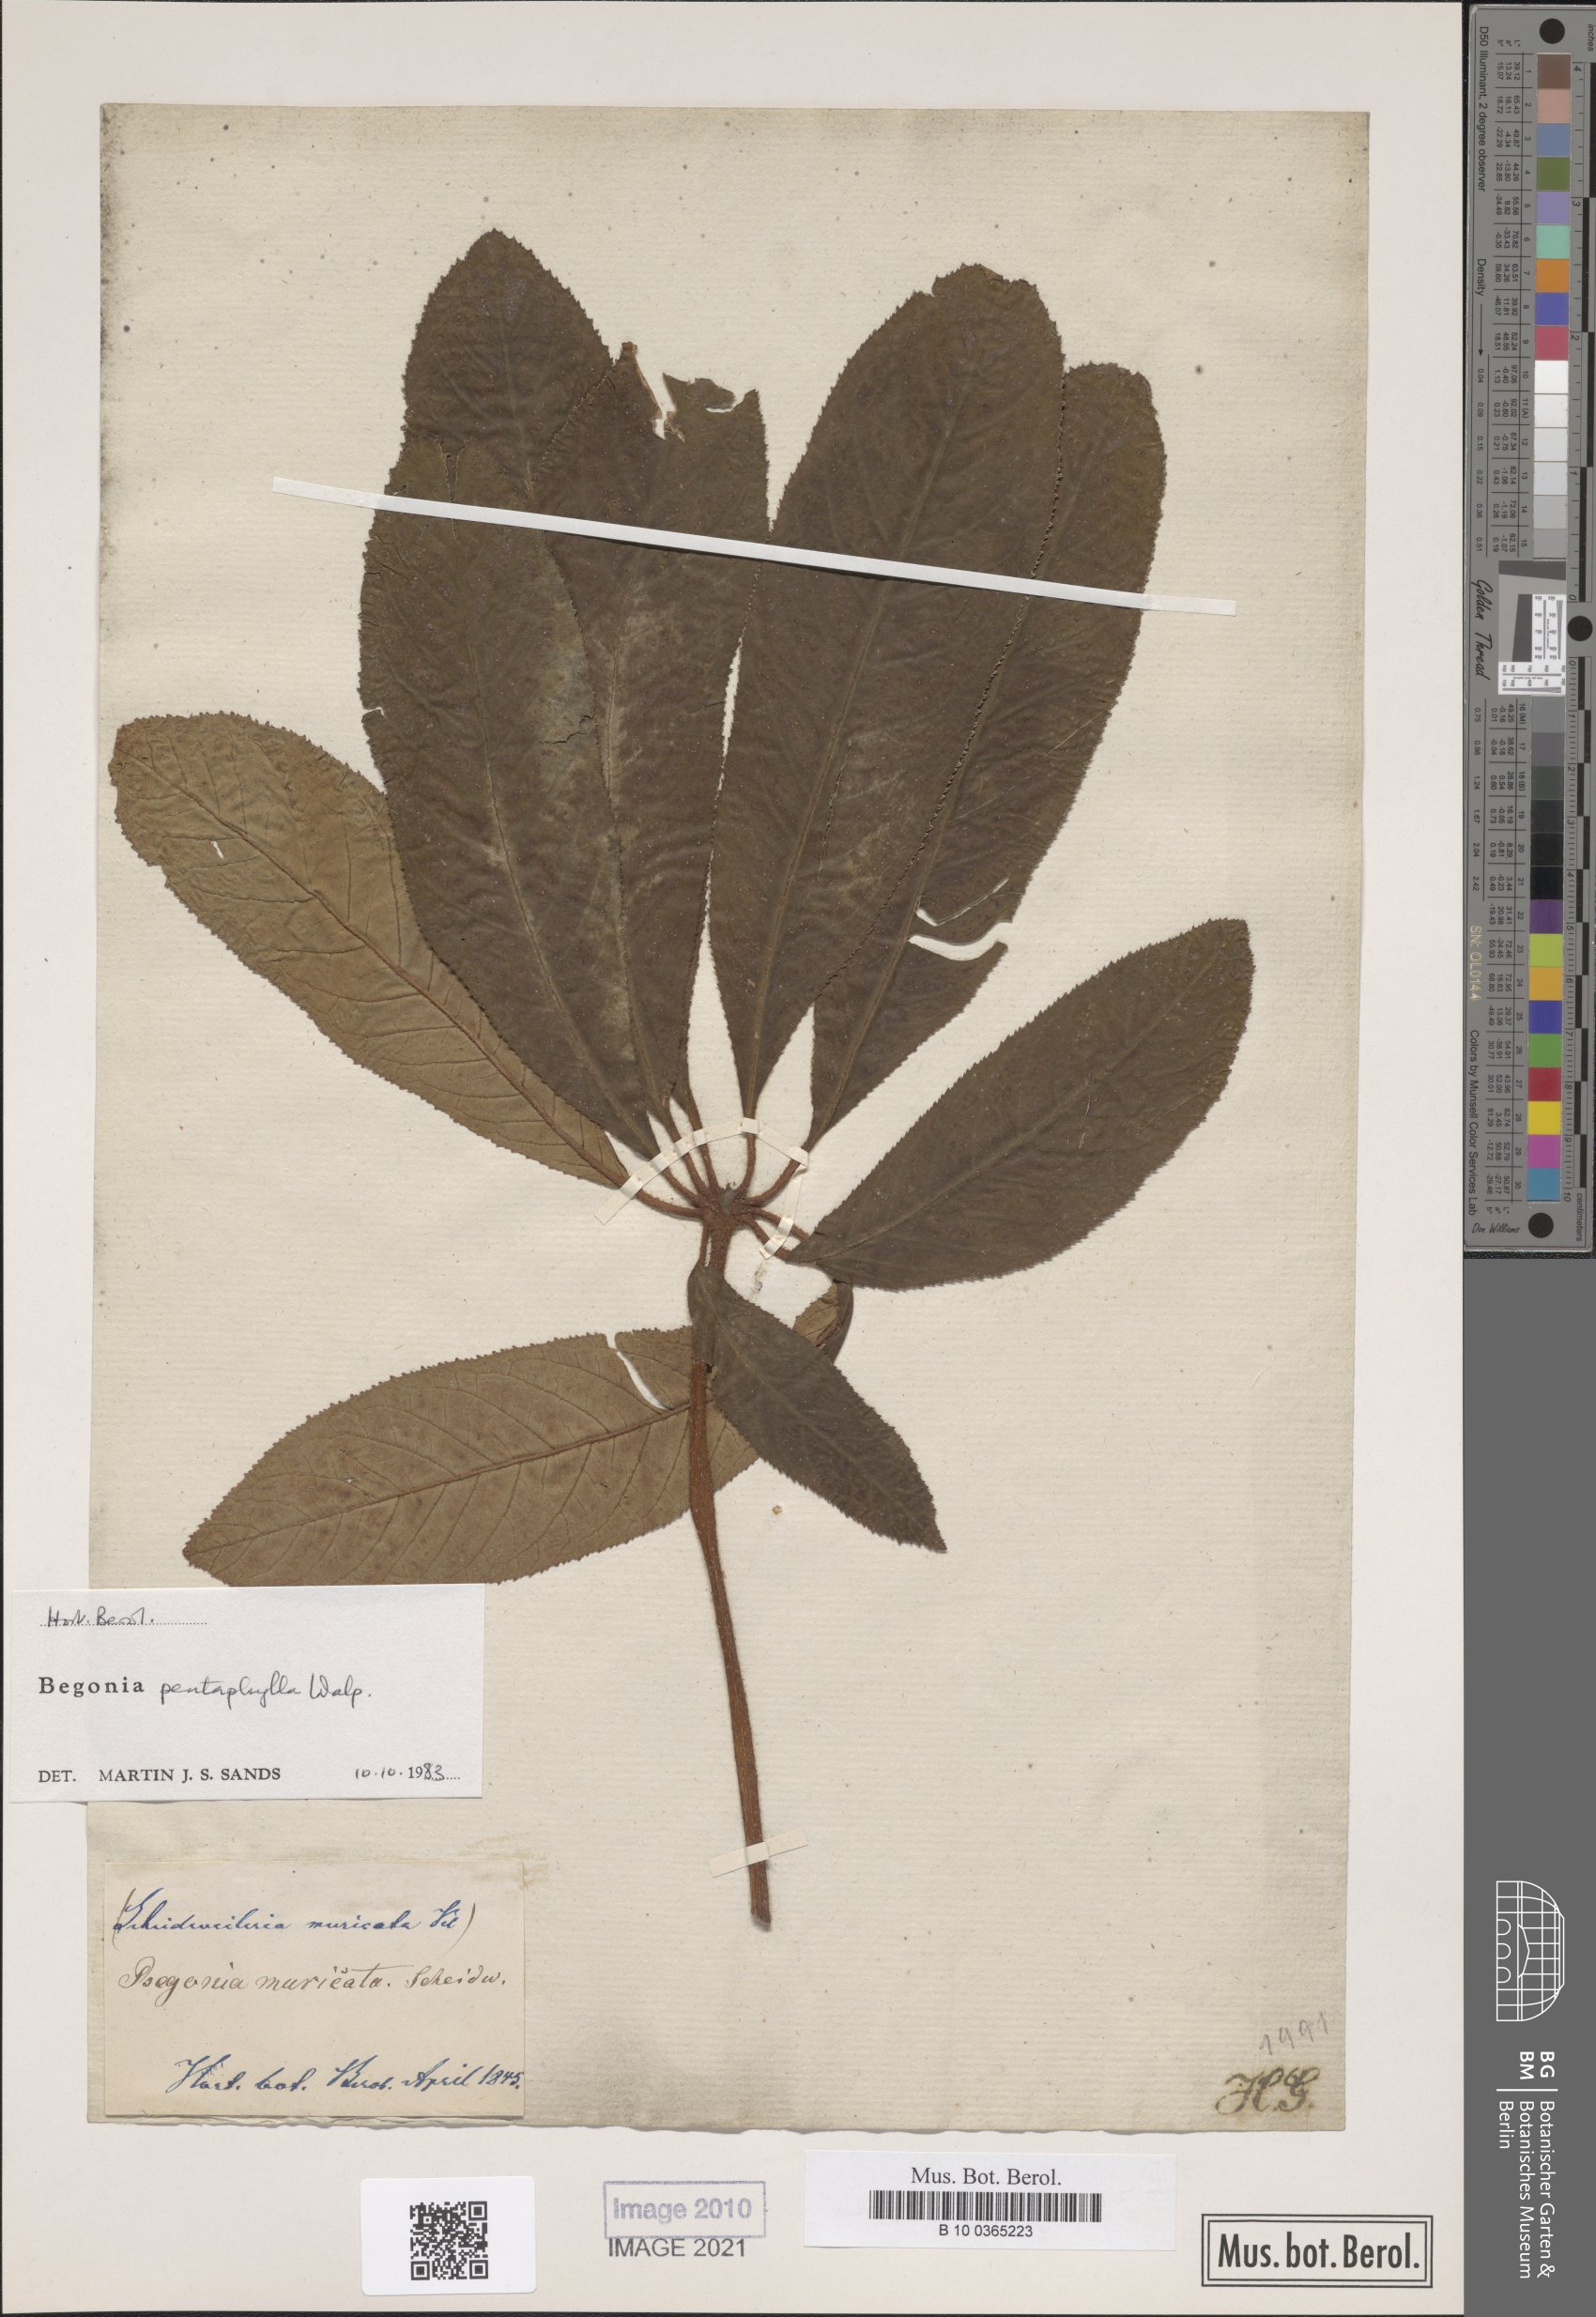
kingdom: Plantae
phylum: Tracheophyta
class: Magnoliopsida
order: Cucurbitales
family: Begoniaceae
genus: Begonia
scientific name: Begonia pentaphylla
